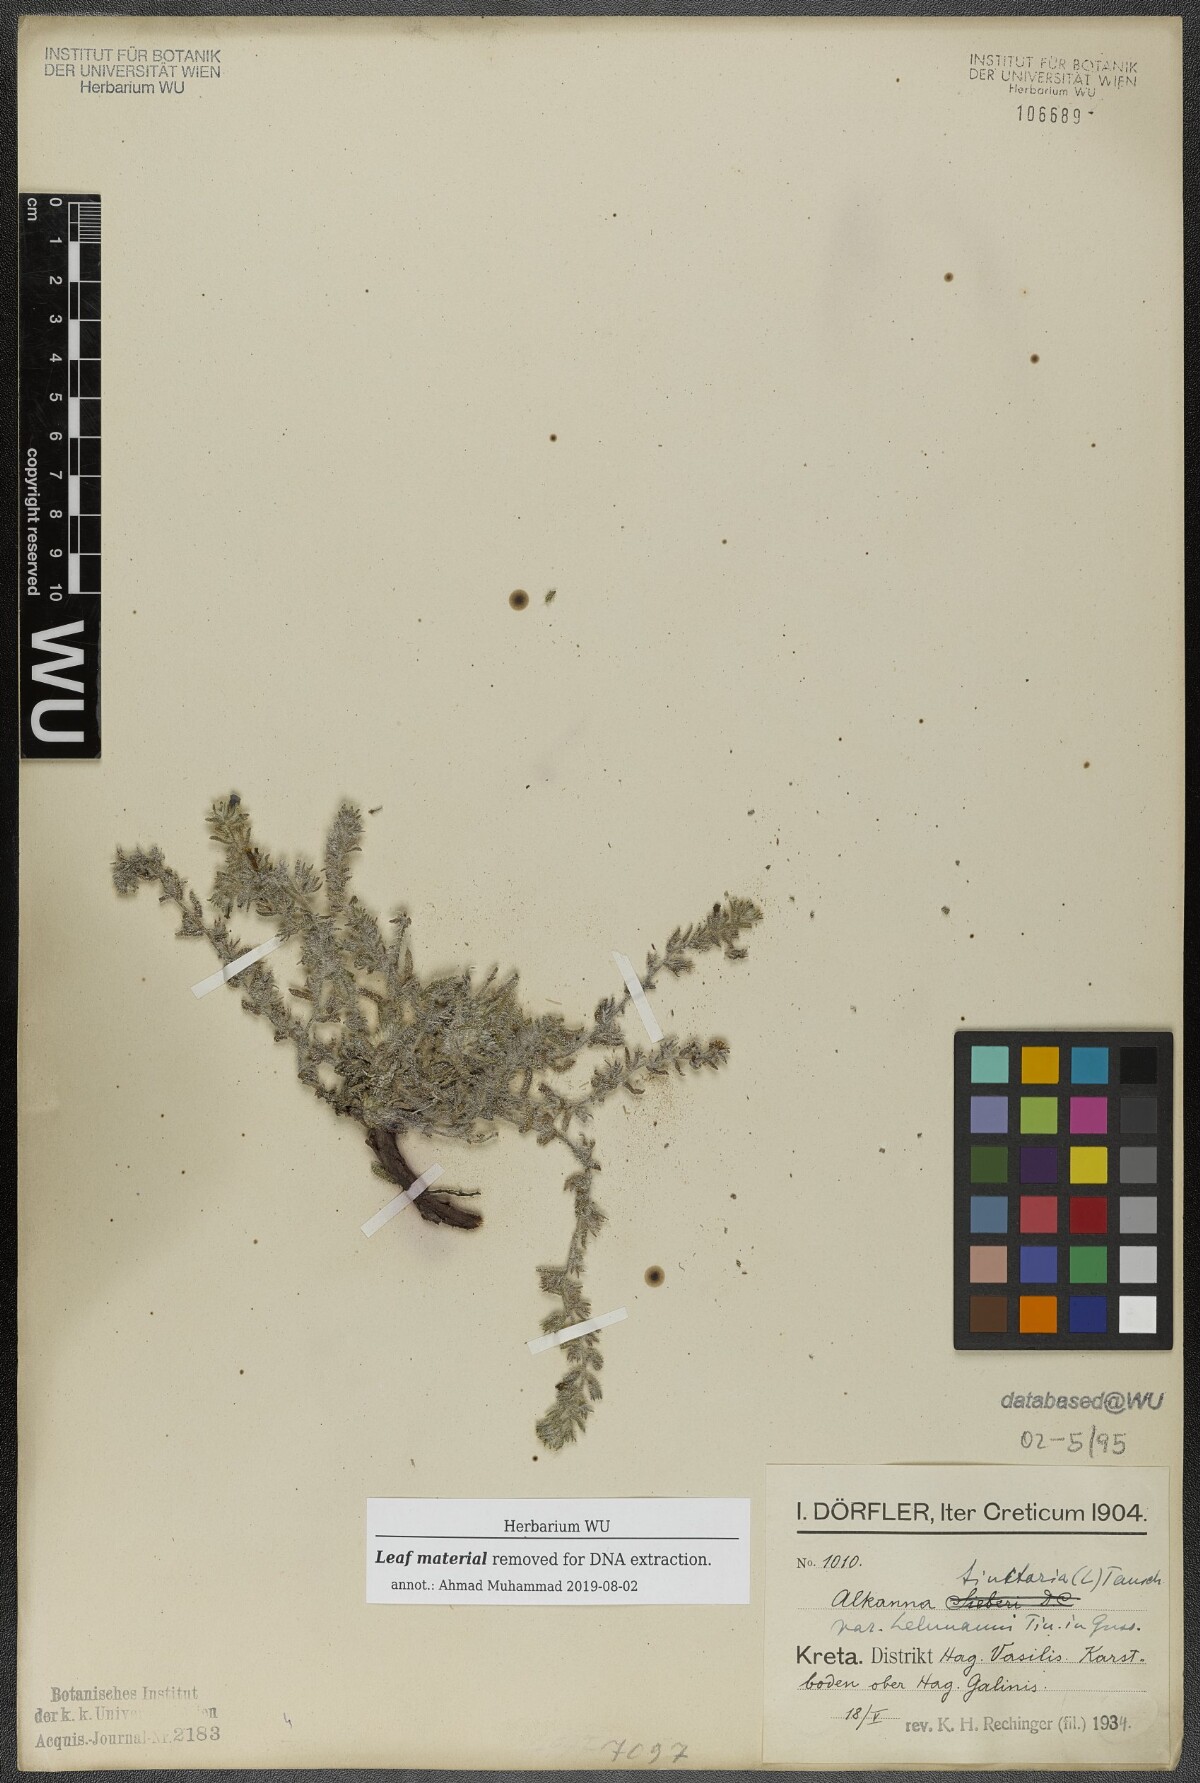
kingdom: Plantae
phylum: Tracheophyta
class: Magnoliopsida
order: Boraginales
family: Boraginaceae
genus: Alkanna
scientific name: Alkanna tinctoria
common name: Dyer's-alkanet
